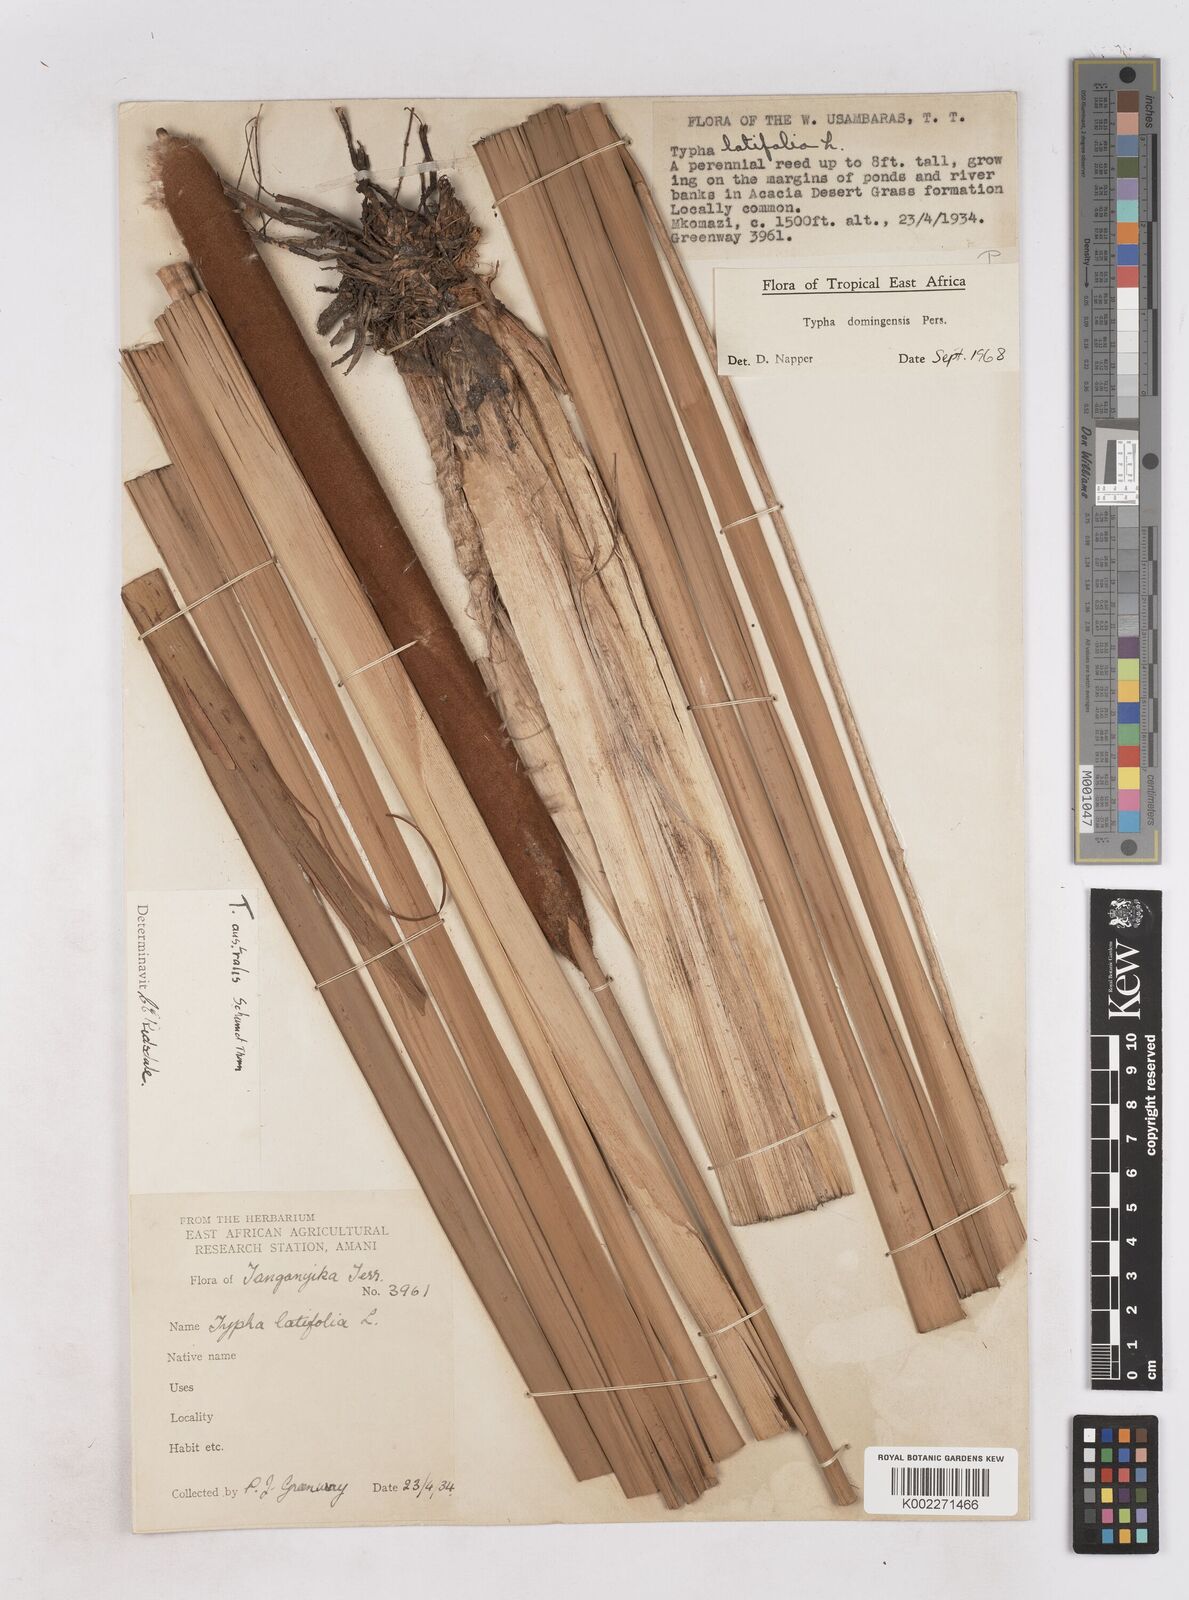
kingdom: Plantae
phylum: Tracheophyta
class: Liliopsida
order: Poales
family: Typhaceae
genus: Typha
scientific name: Typha domingensis
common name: Southern cattail
